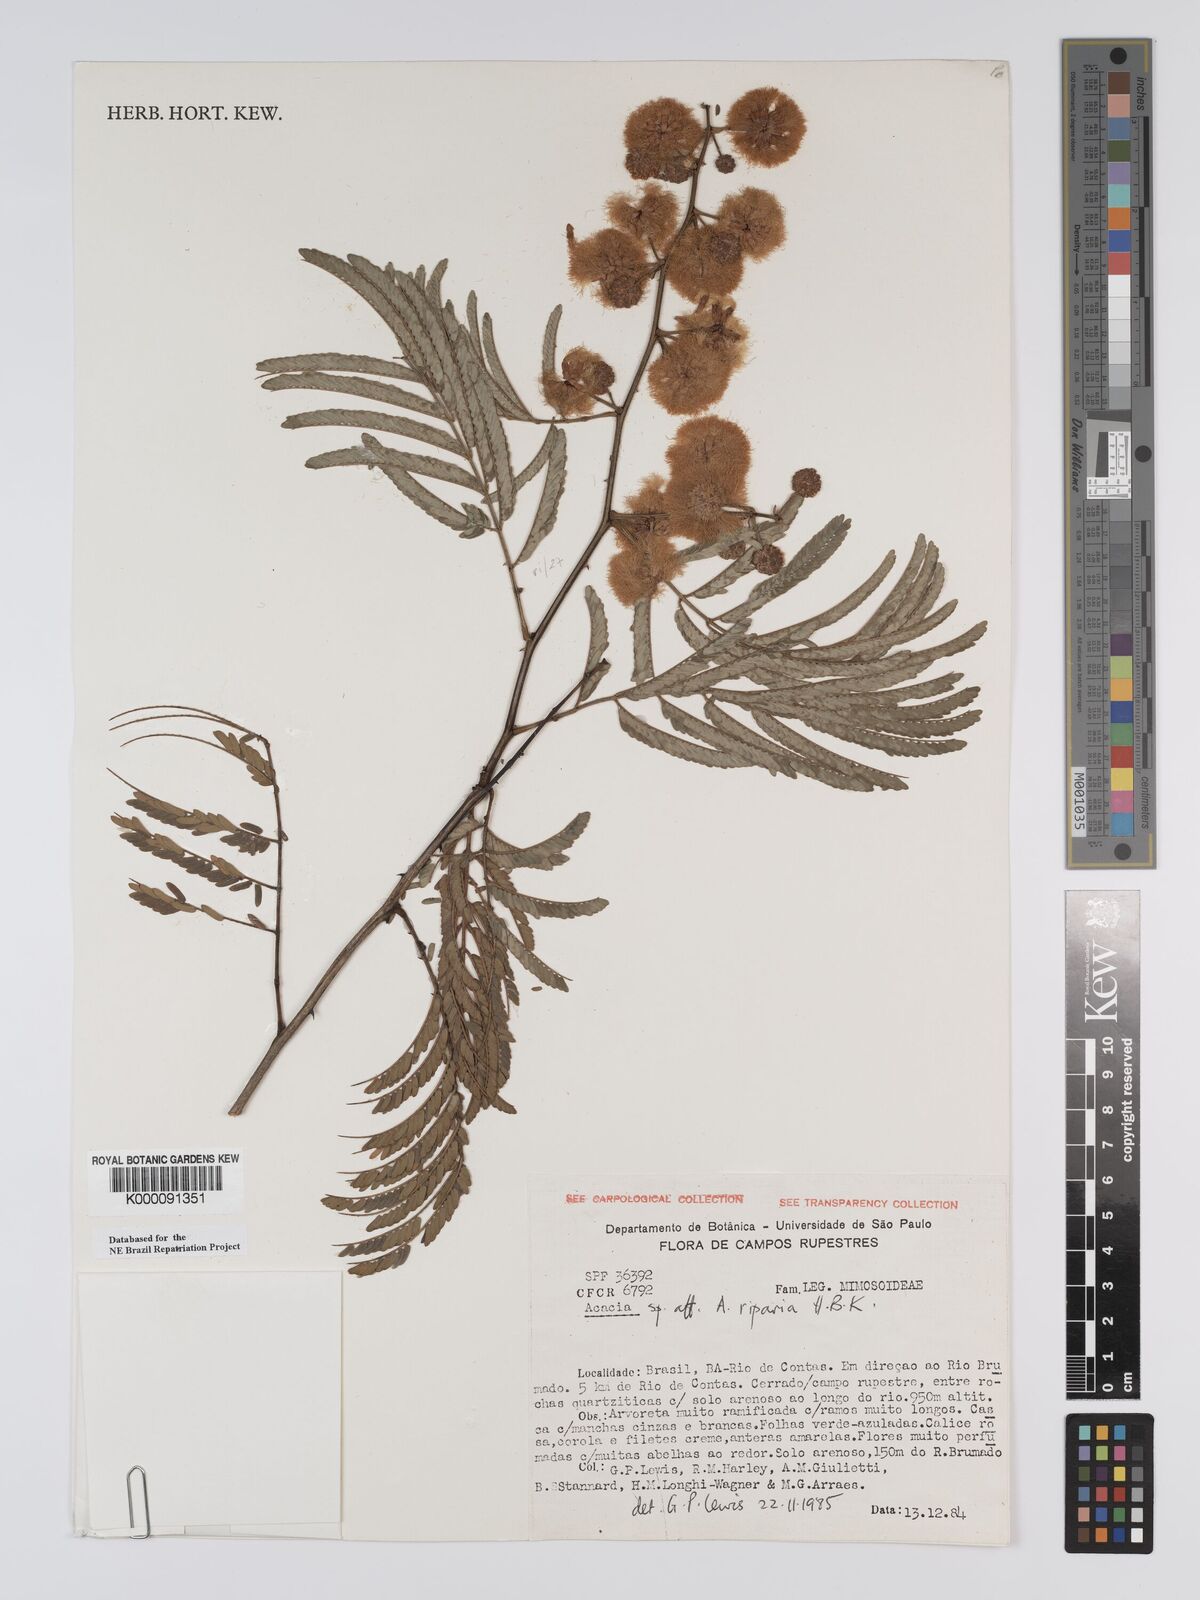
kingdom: Plantae
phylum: Tracheophyta
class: Magnoliopsida
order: Fabales
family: Fabaceae
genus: Senegalia
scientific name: Senegalia riparia
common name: Catch-and-keep
